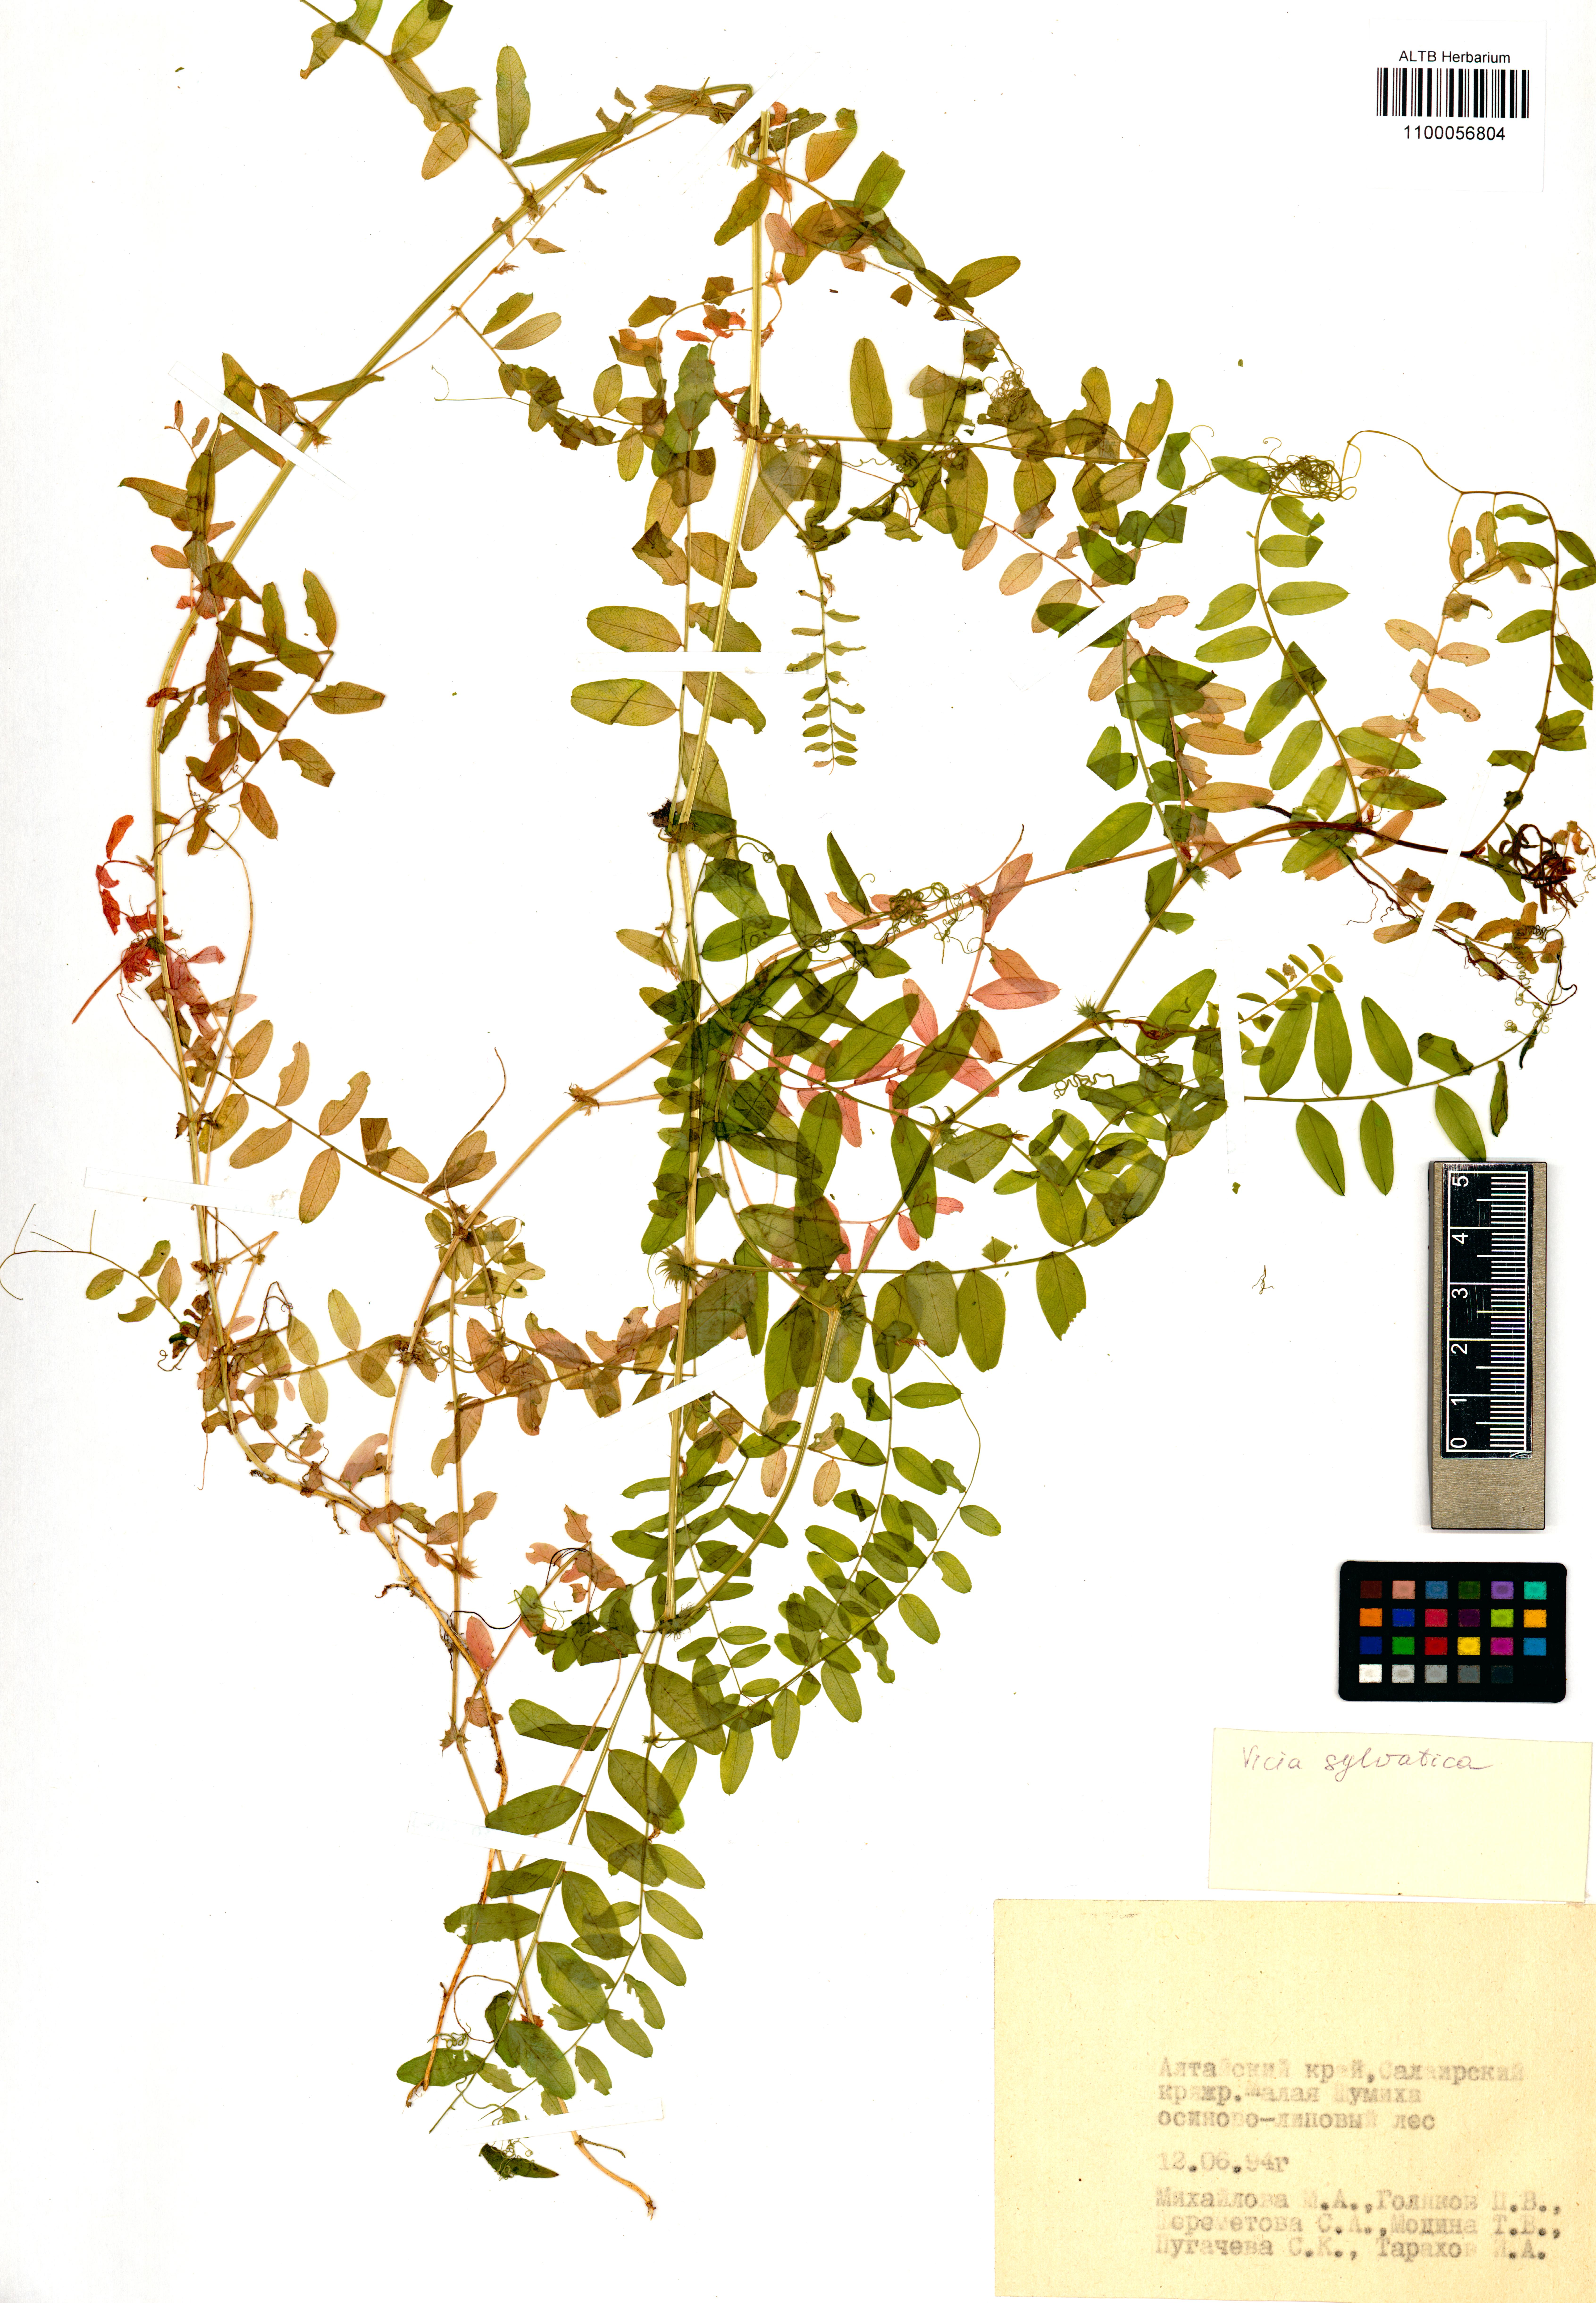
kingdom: Plantae
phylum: Tracheophyta
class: Magnoliopsida
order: Fabales
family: Fabaceae
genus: Vicia
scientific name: Vicia sylvatica
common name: Wood vetch
